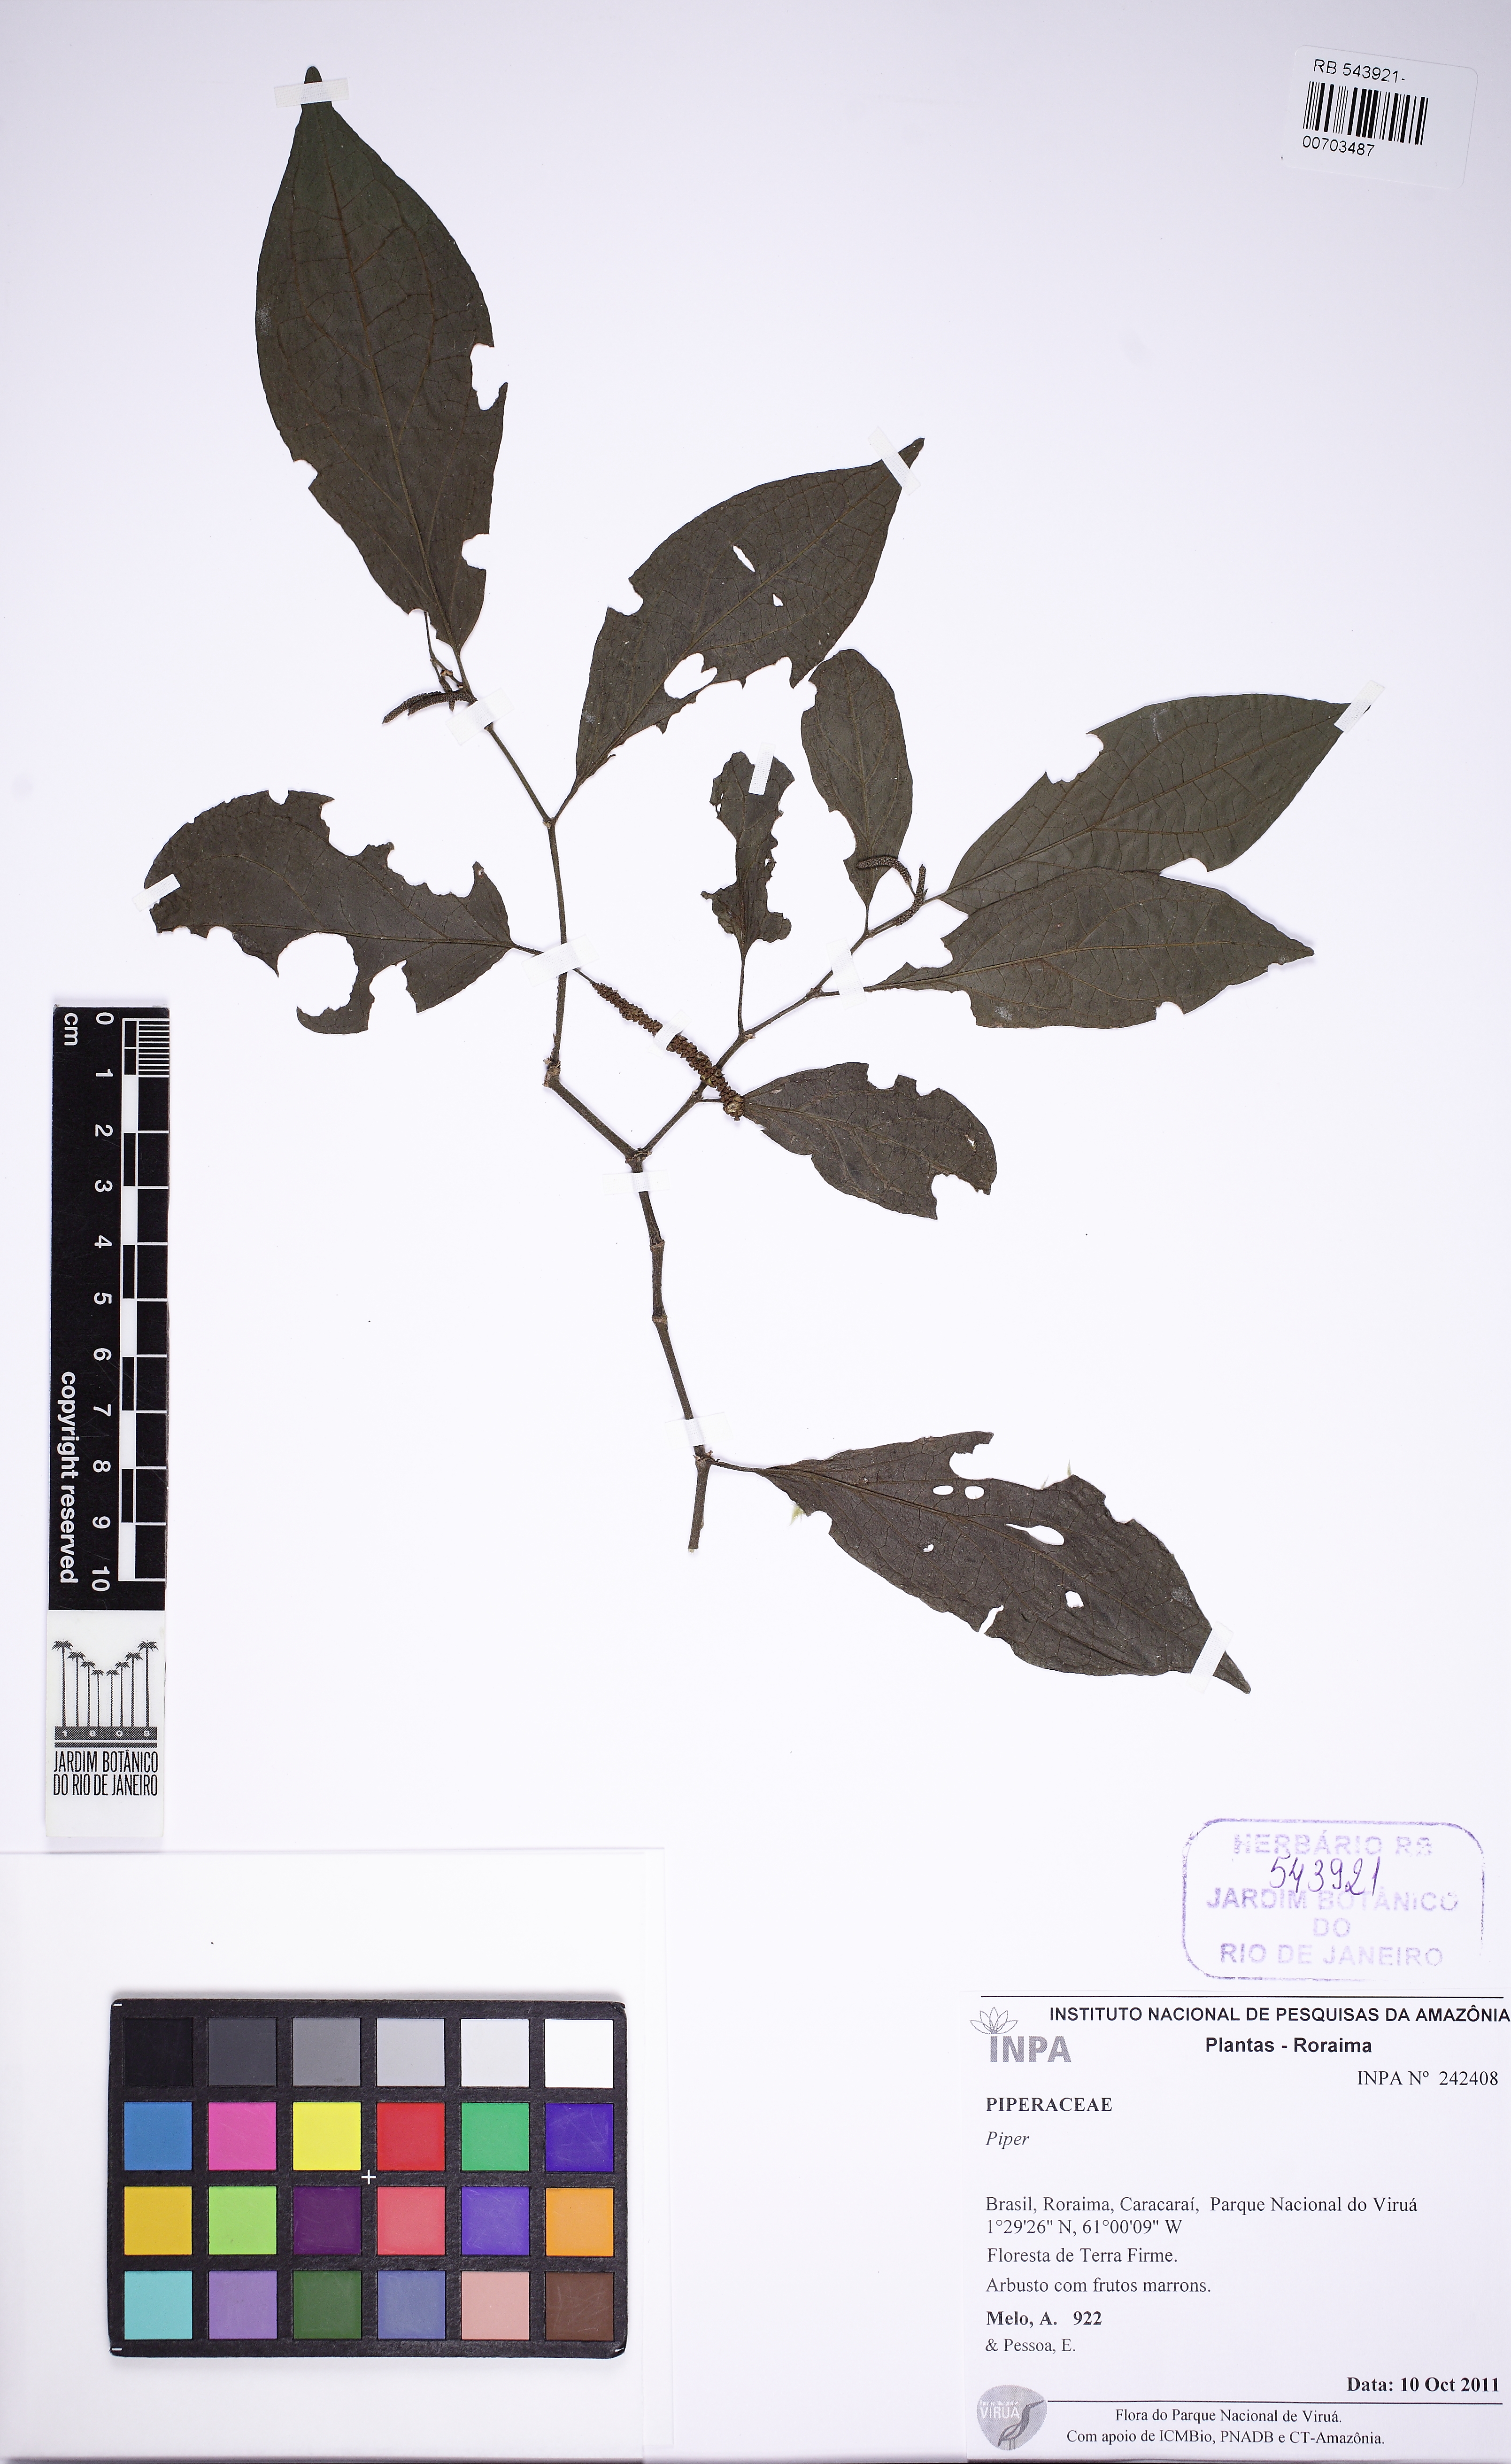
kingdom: Plantae
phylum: Tracheophyta
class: Magnoliopsida
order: Piperales
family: Piperaceae
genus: Piper
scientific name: Piper
